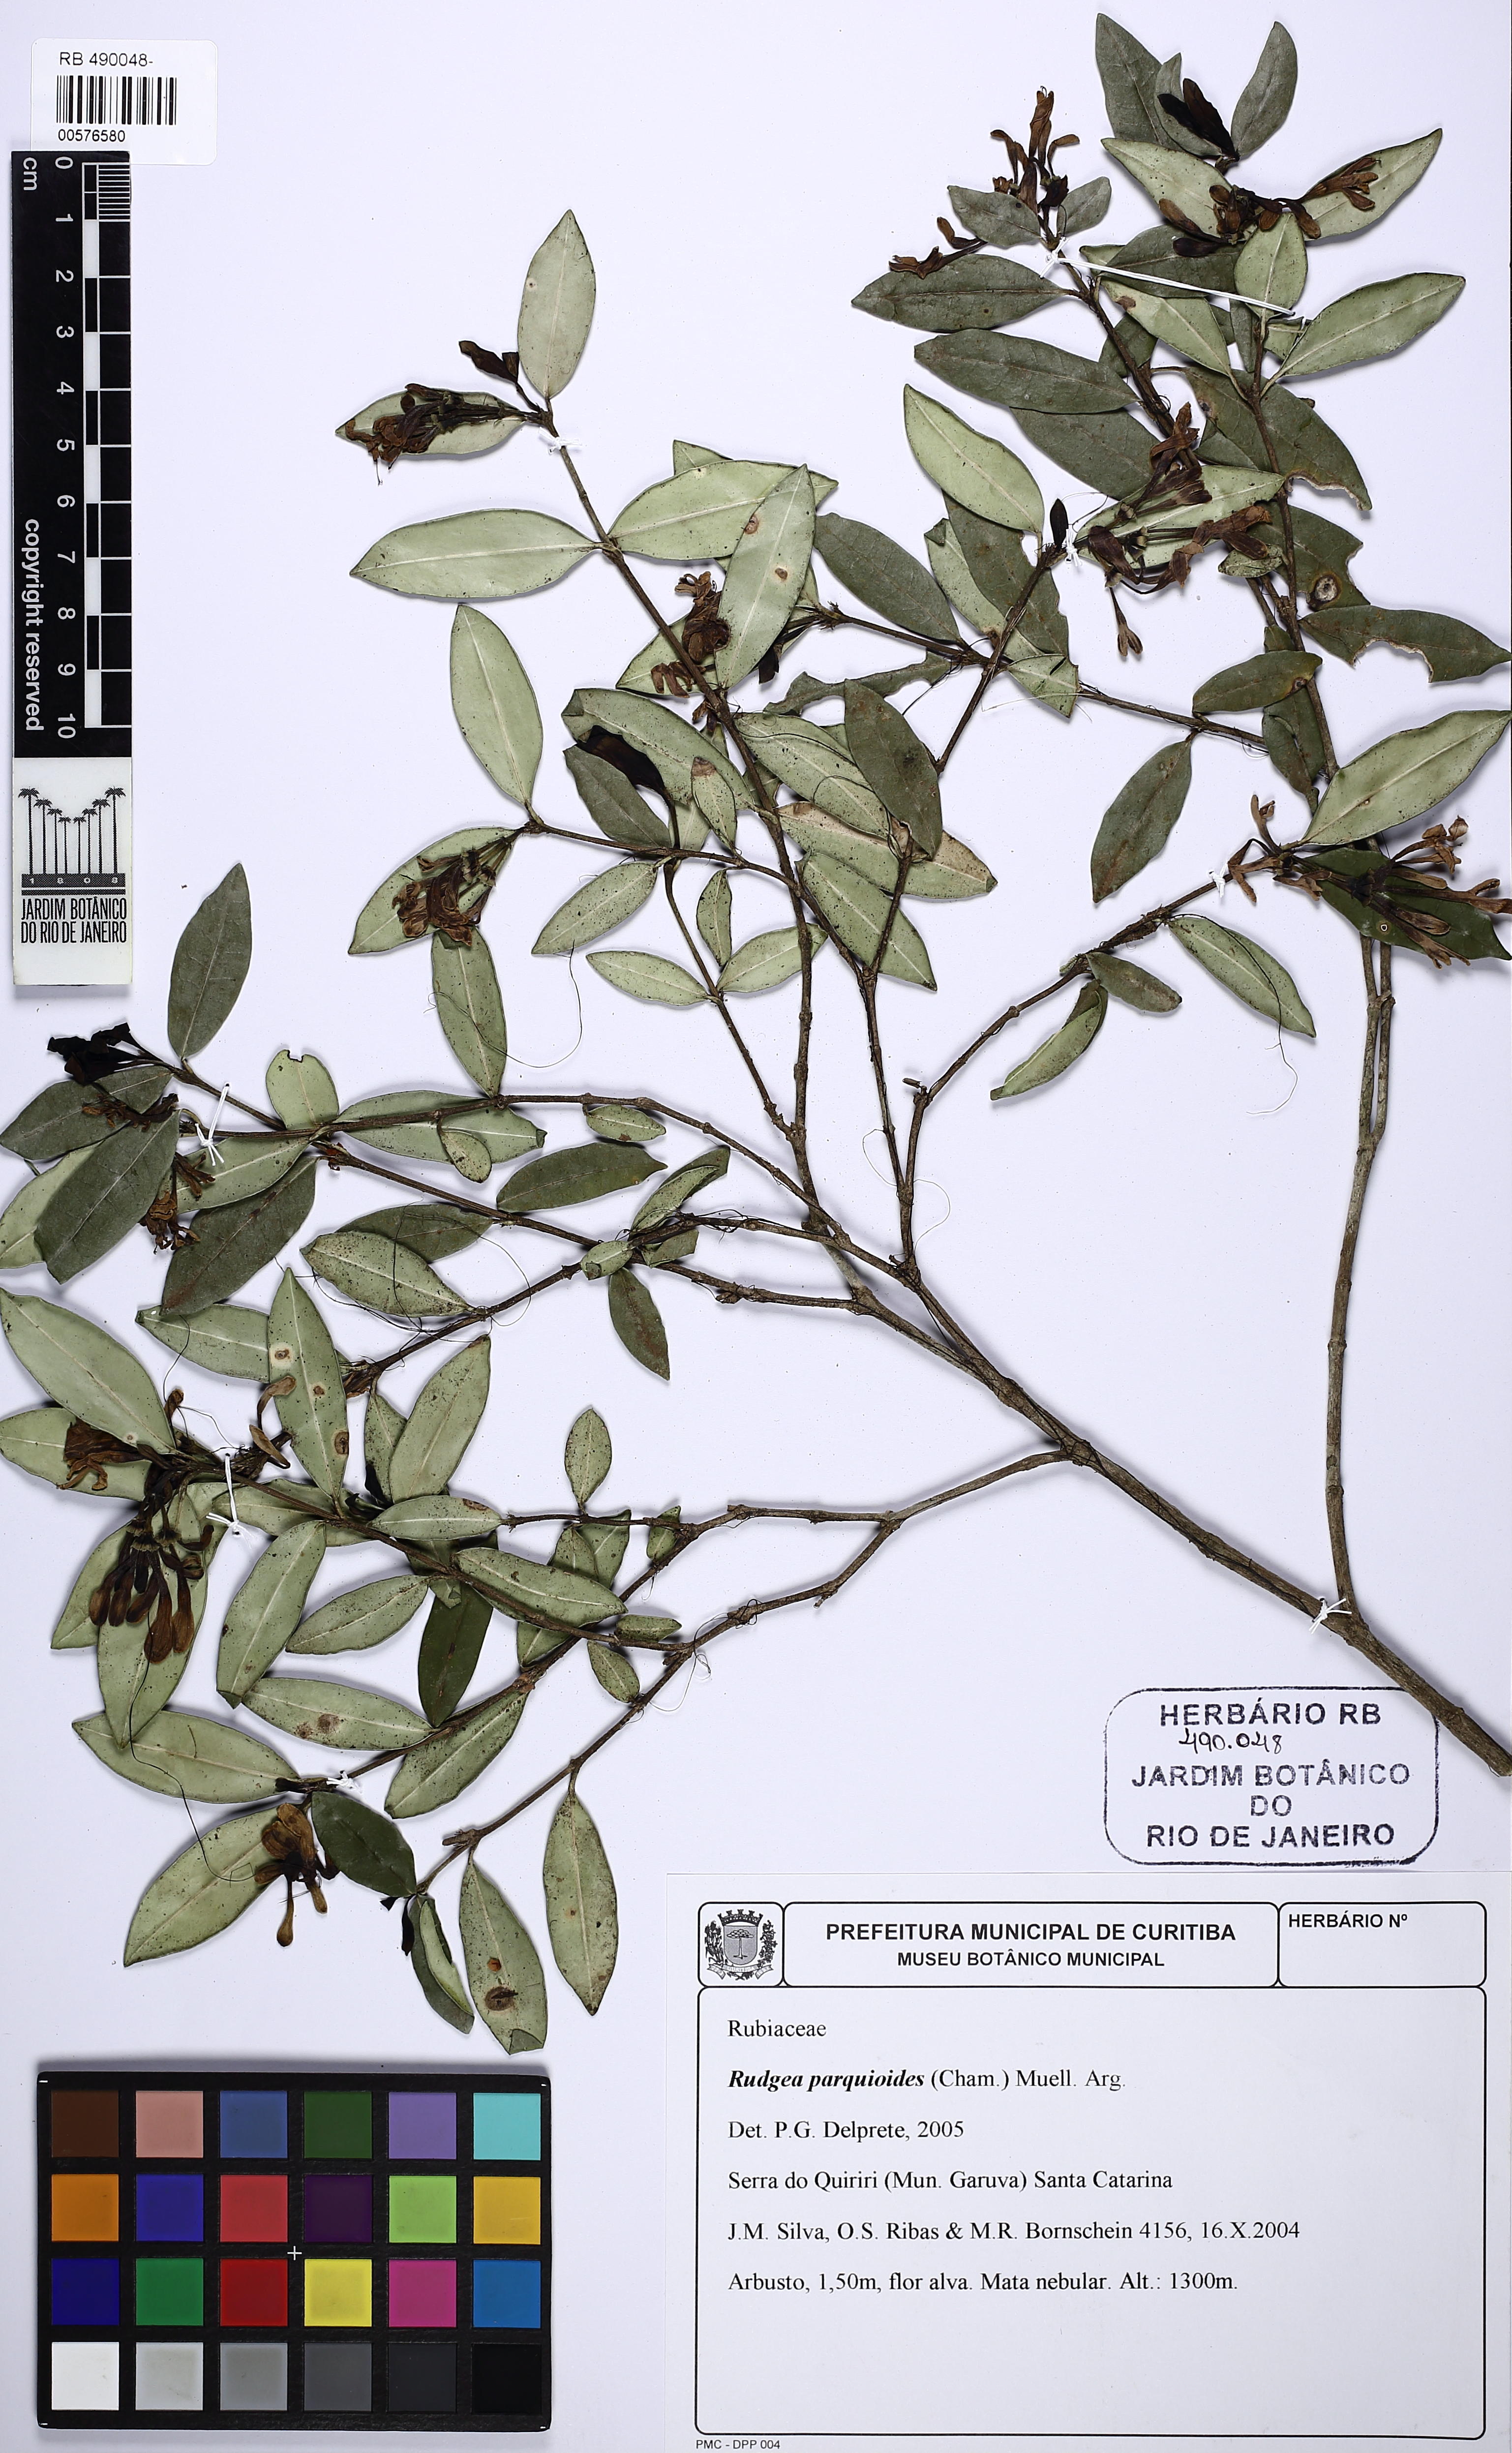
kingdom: Plantae
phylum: Tracheophyta
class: Magnoliopsida
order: Gentianales
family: Rubiaceae
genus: Rudgea
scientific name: Rudgea parquioides
